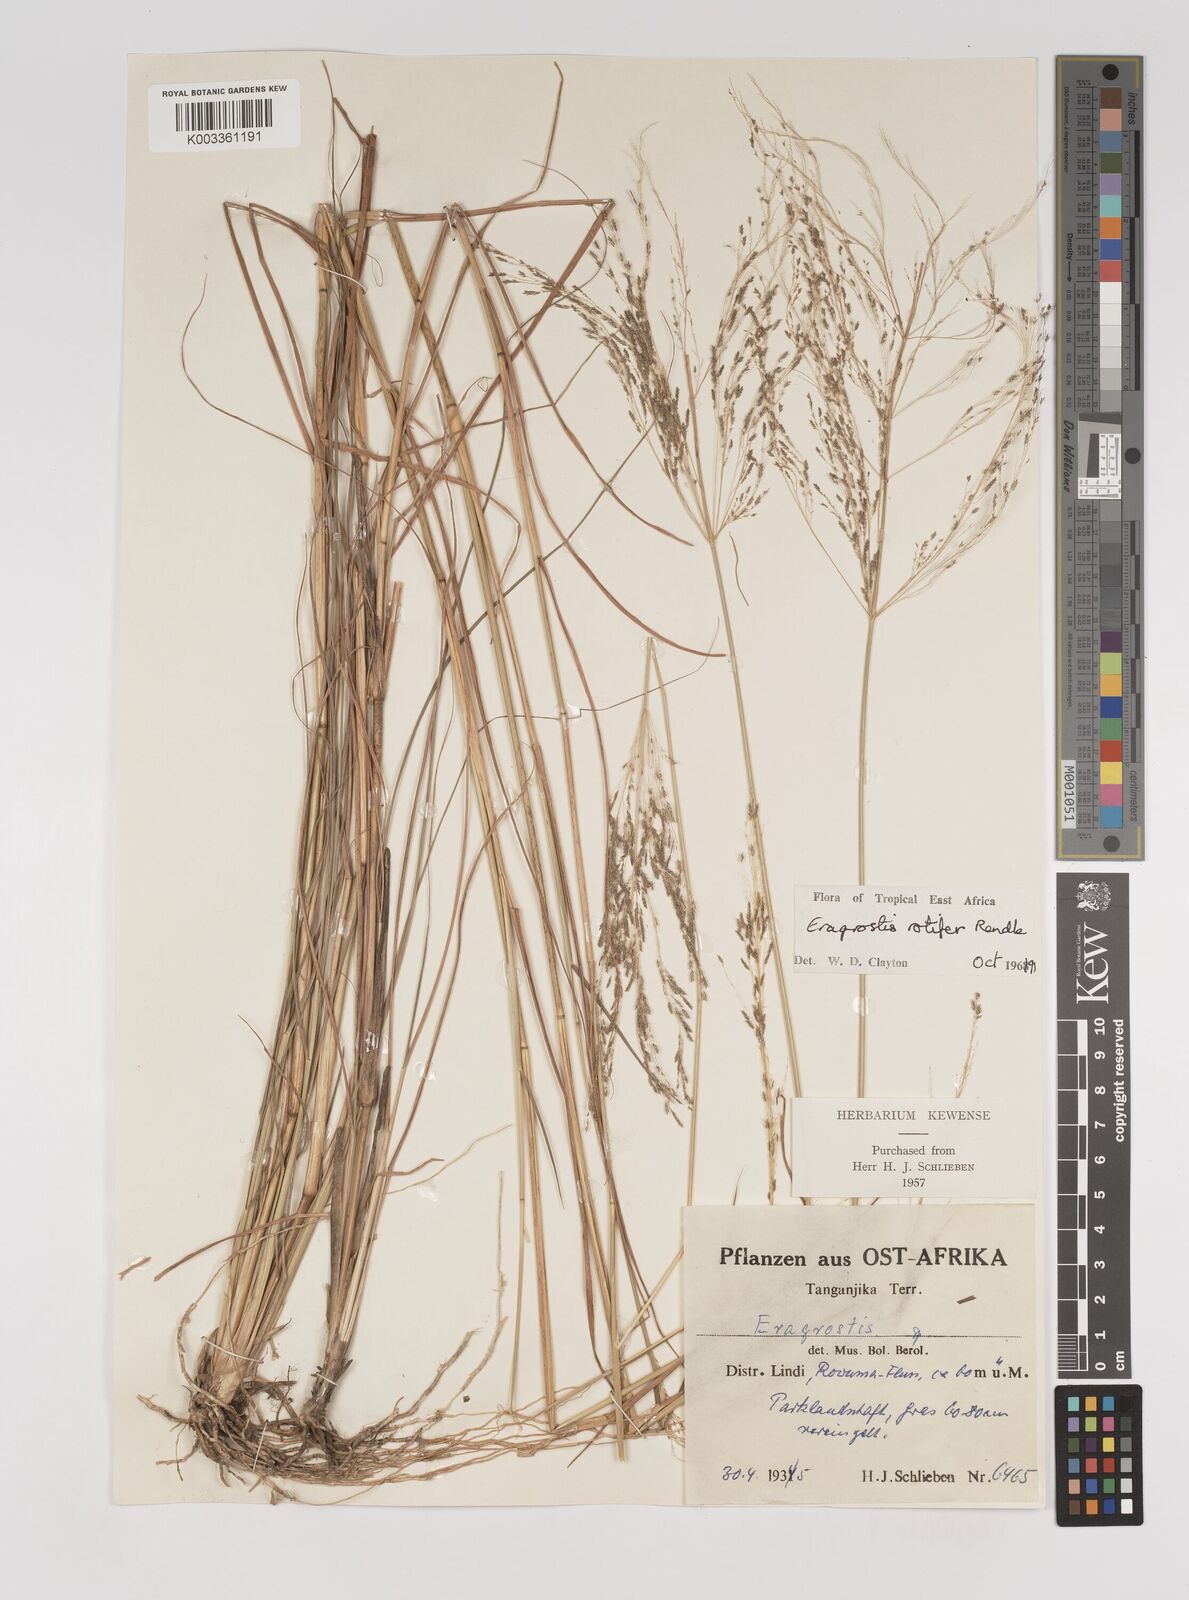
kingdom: Plantae
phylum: Tracheophyta
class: Liliopsida
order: Poales
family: Poaceae
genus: Eragrostis
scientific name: Eragrostis rotifer
